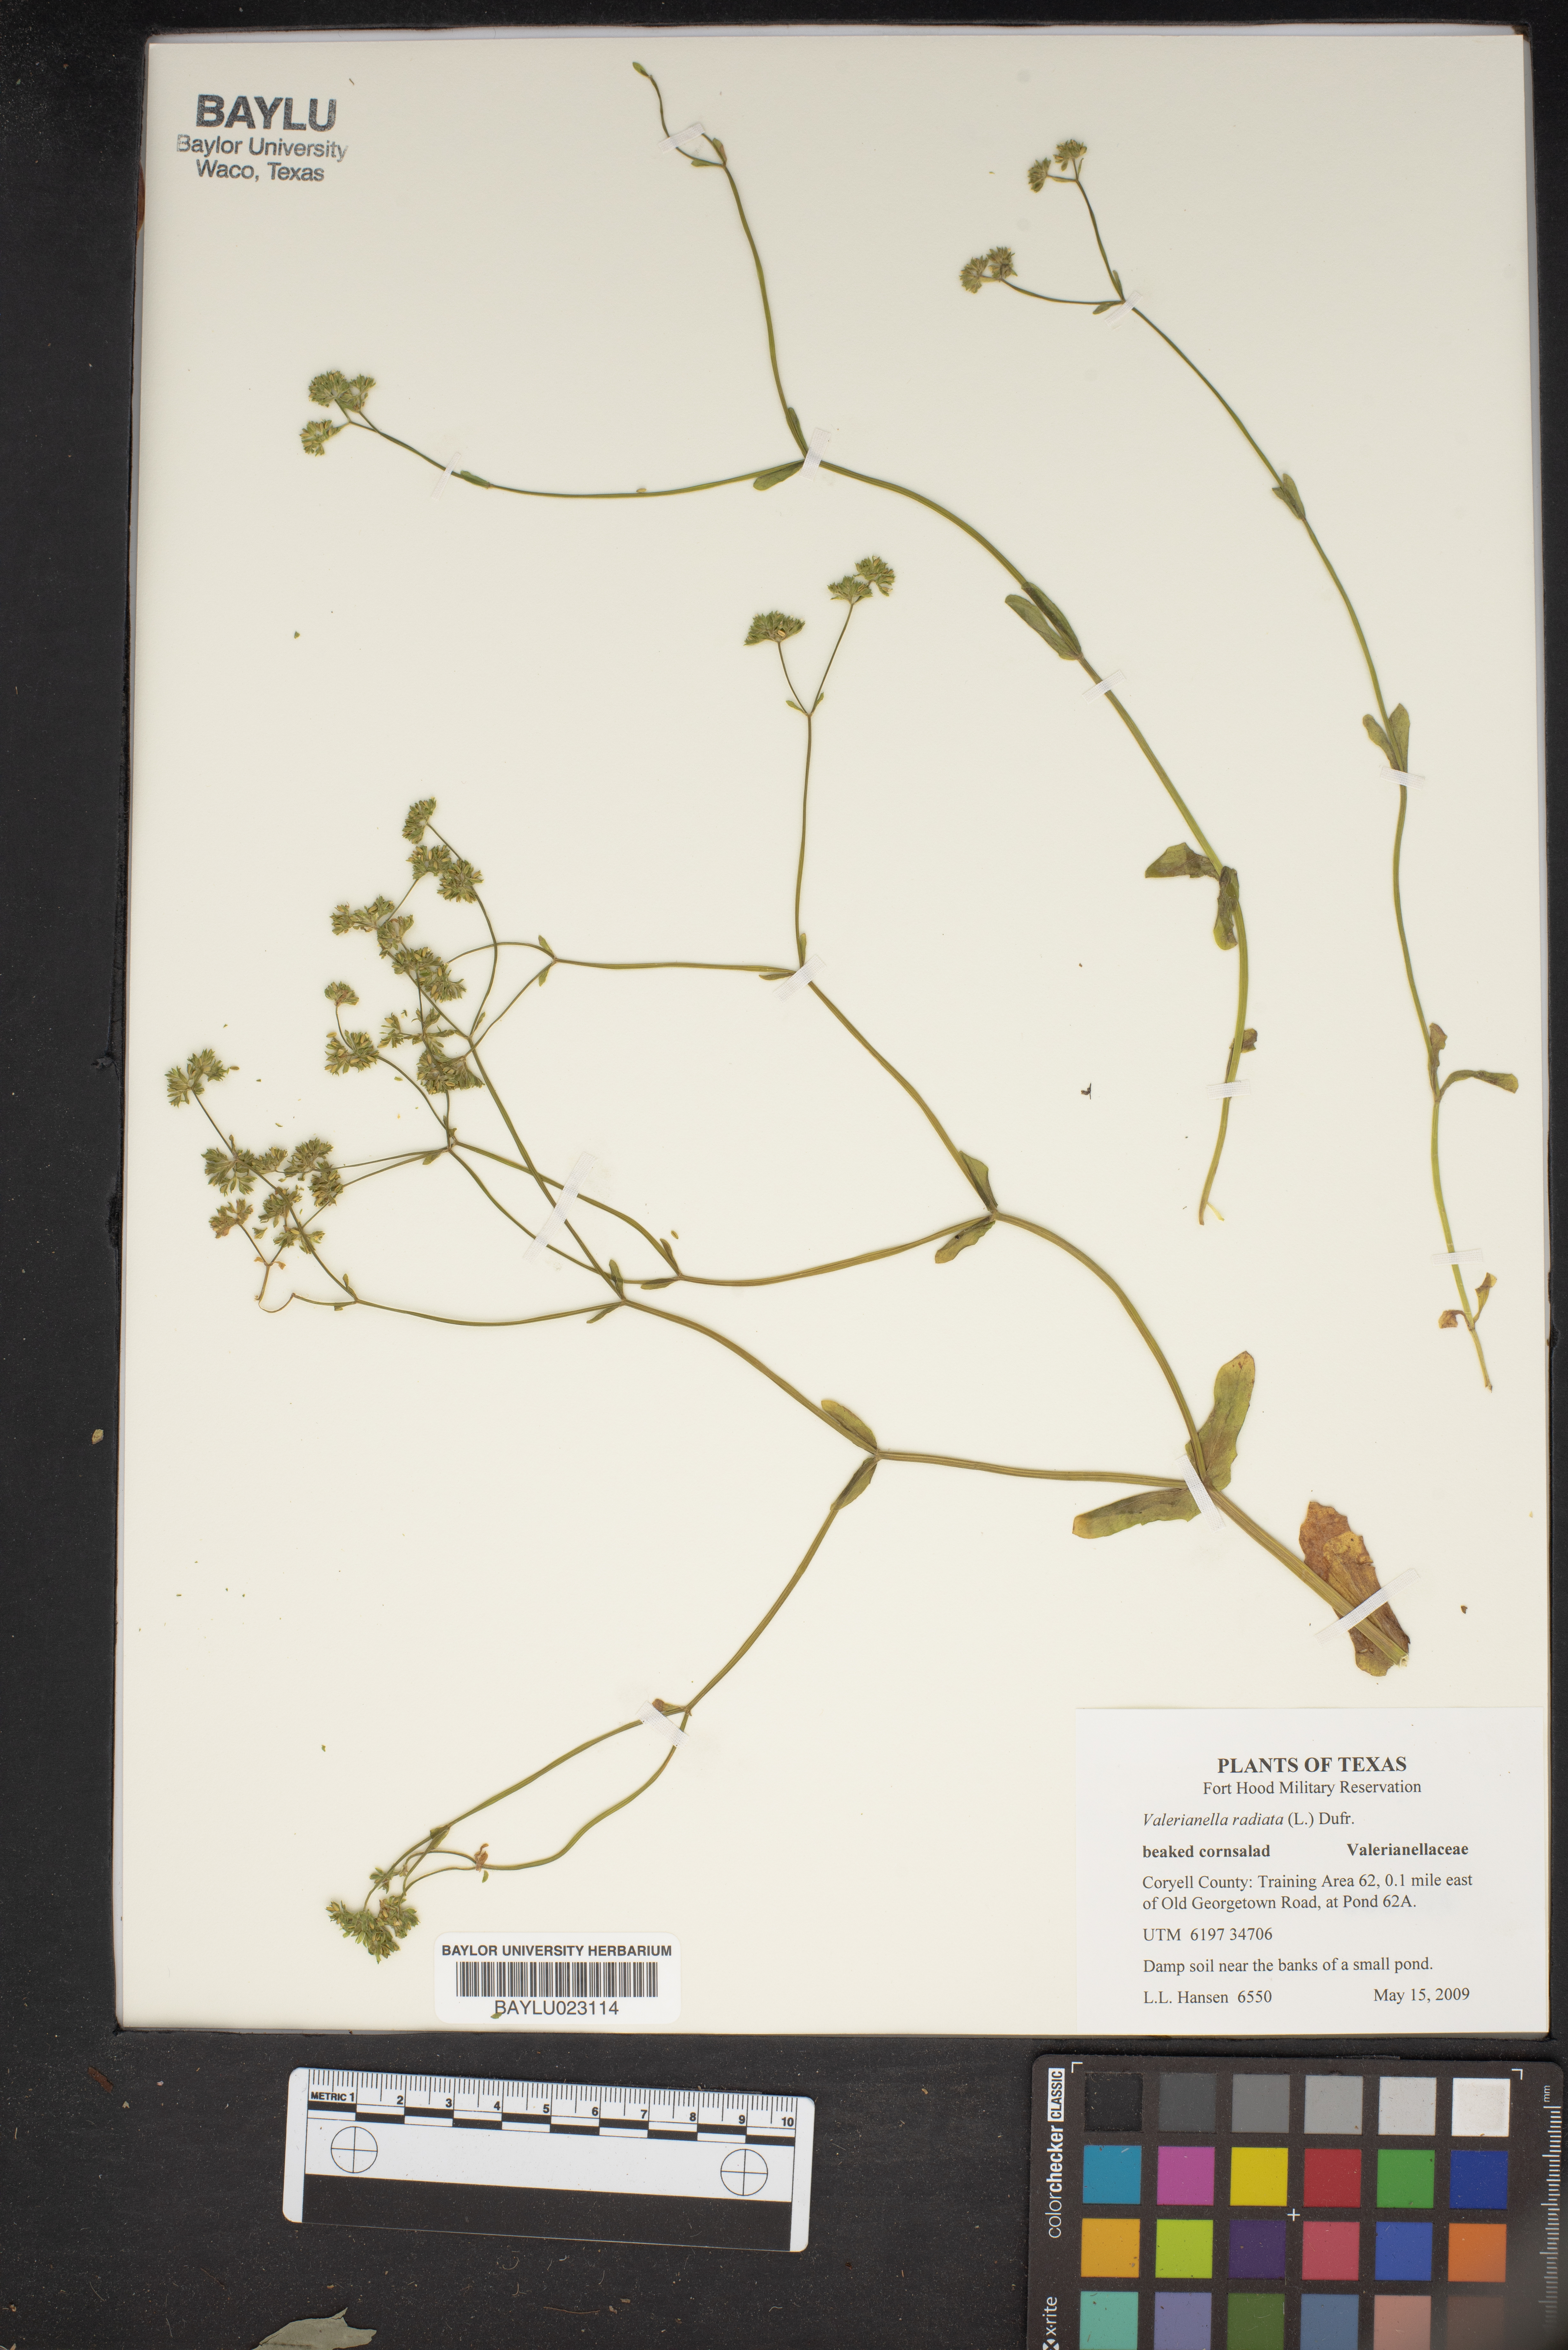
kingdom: Plantae
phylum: Tracheophyta
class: Magnoliopsida
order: Dipsacales
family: Caprifoliaceae
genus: Valerianella
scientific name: Valerianella radiata
